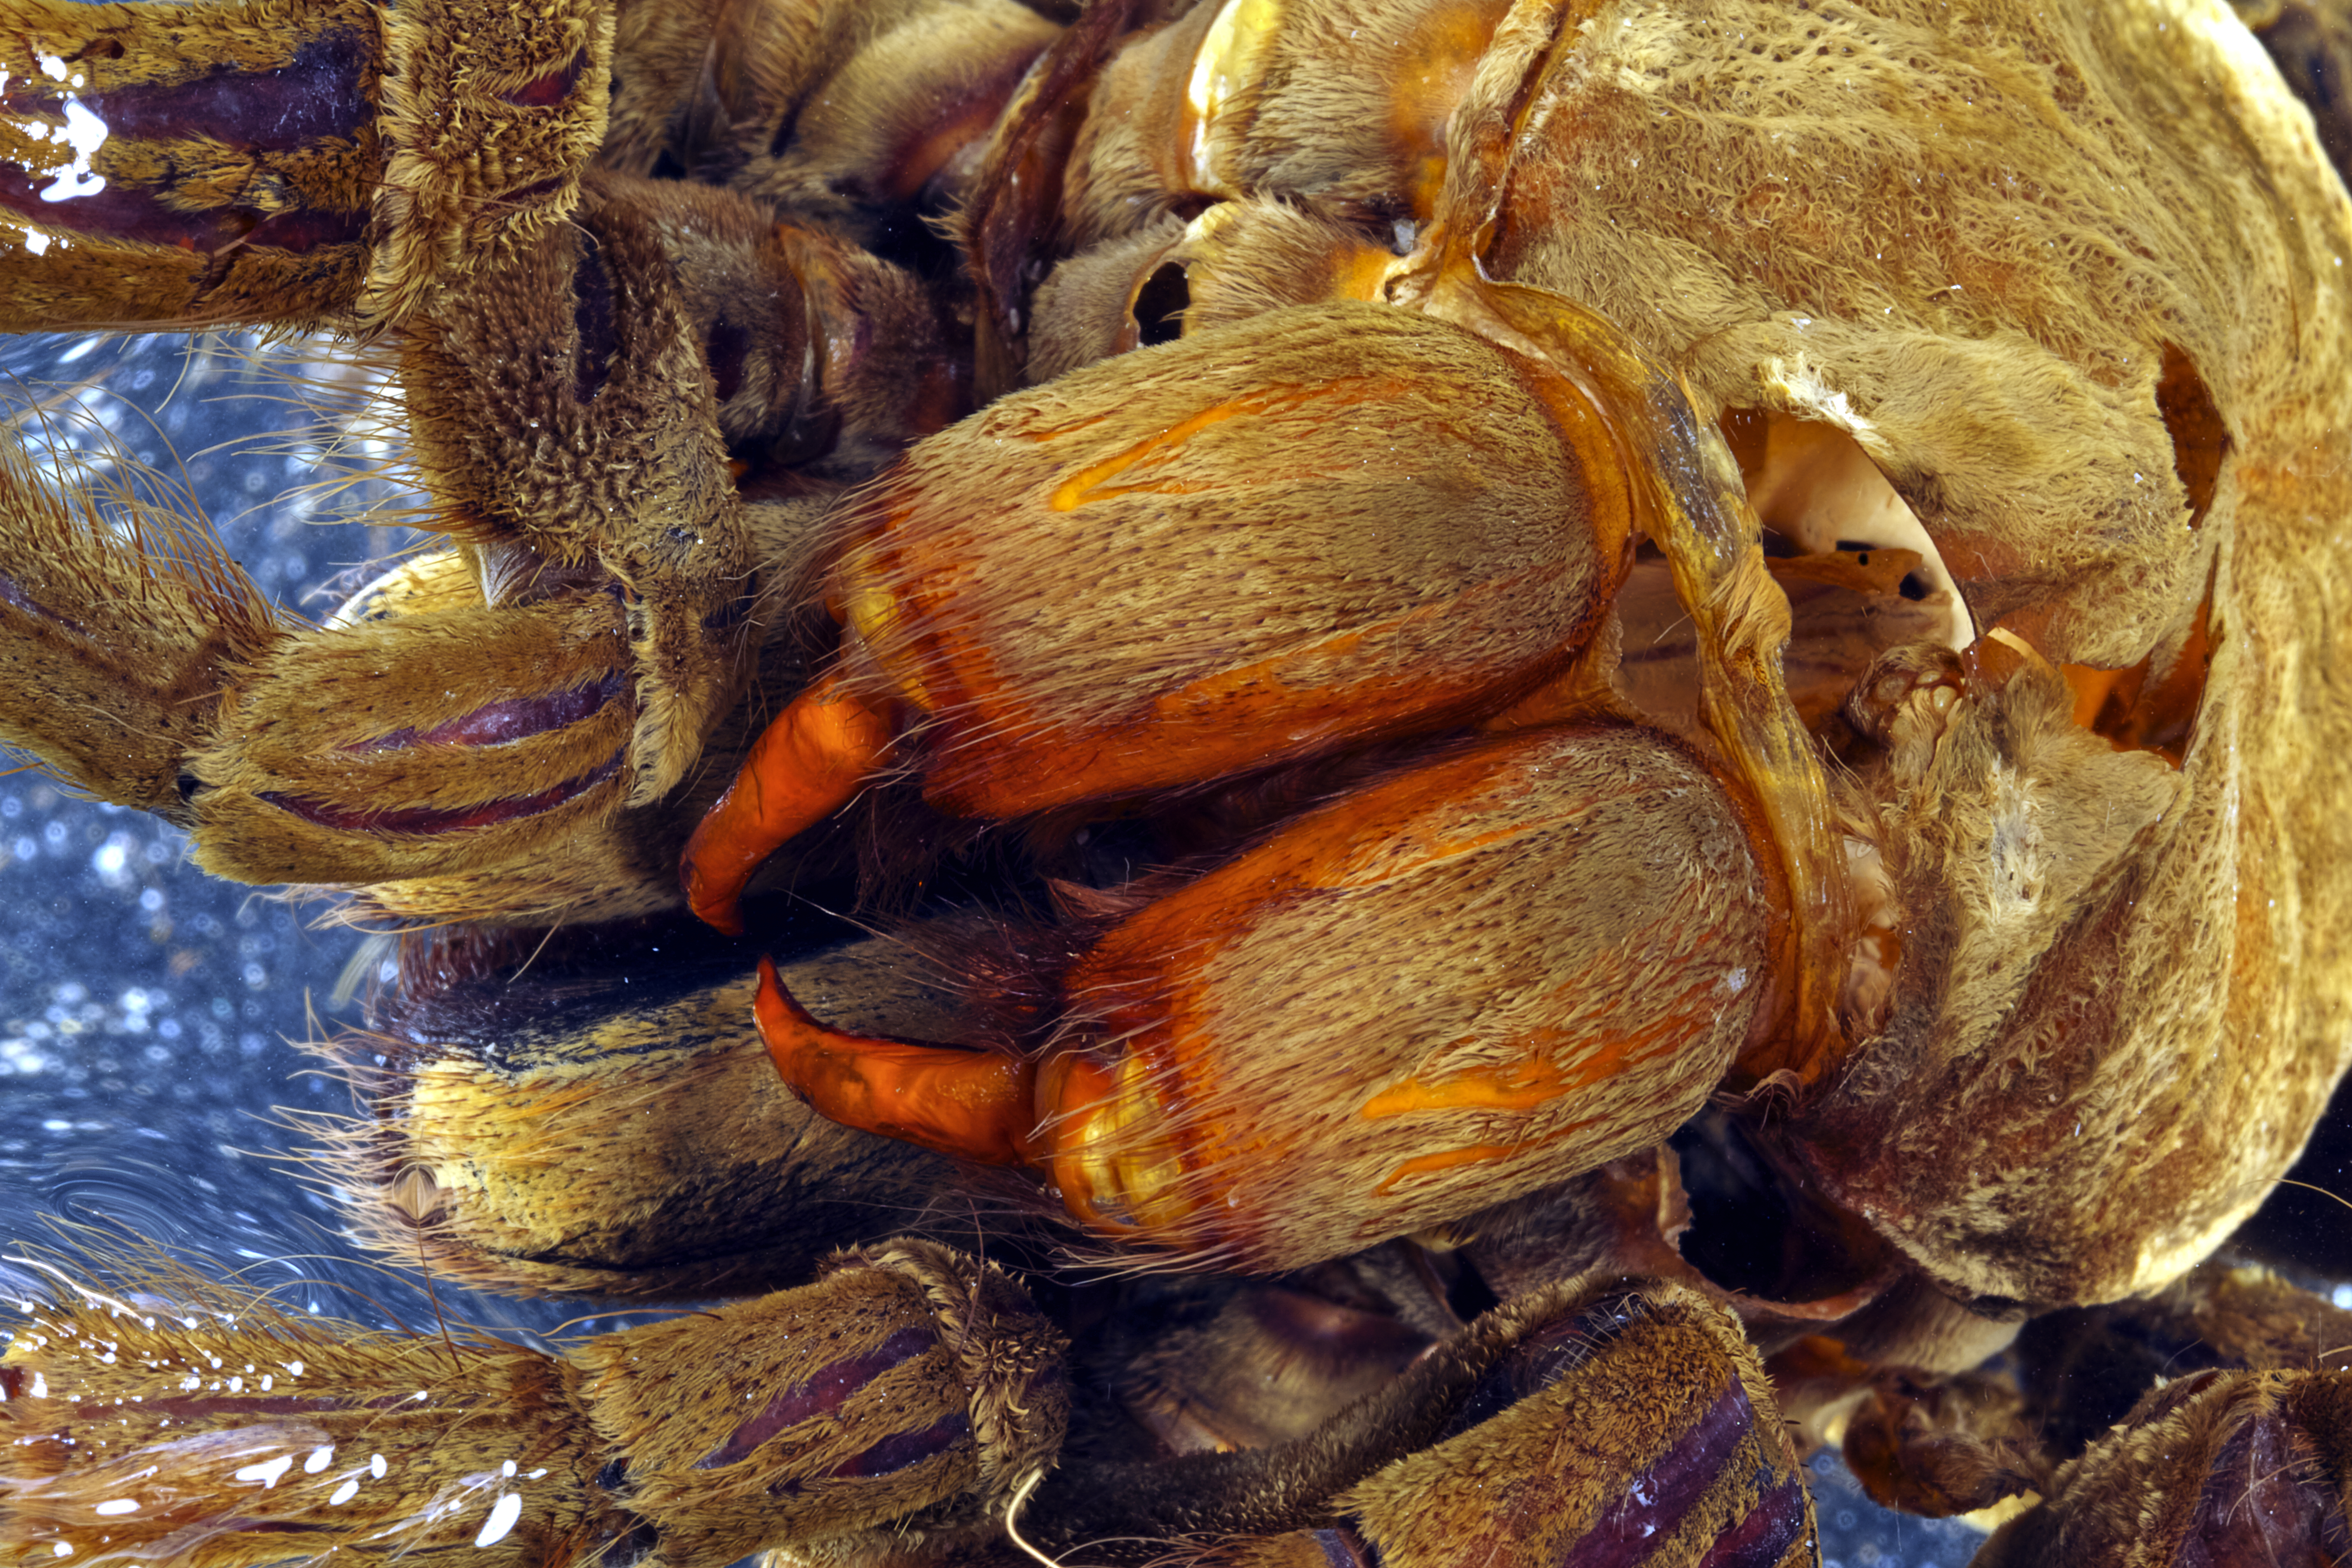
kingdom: Animalia
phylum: Arthropoda
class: Arachnida
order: Araneae
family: Theraphosidae
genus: Theraphosa
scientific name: Theraphosa blondi
